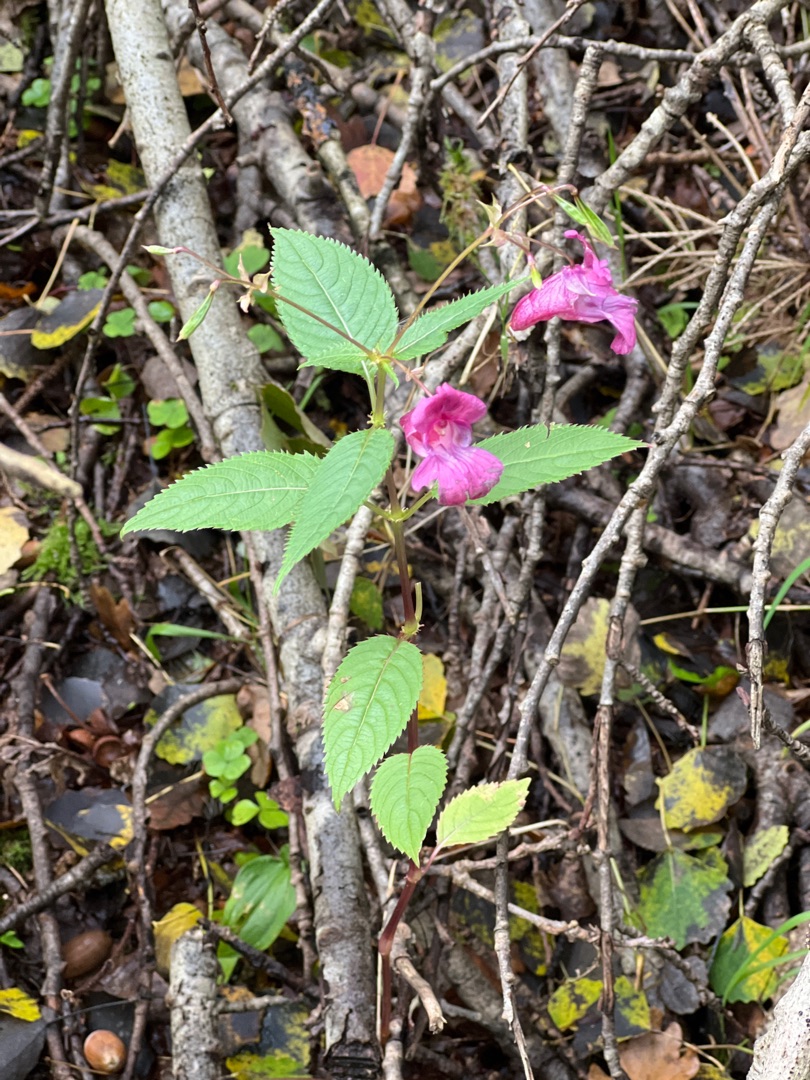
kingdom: Plantae
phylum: Tracheophyta
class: Magnoliopsida
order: Ericales
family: Balsaminaceae
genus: Impatiens
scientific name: Impatiens glandulifera
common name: Kæmpe-balsamin
